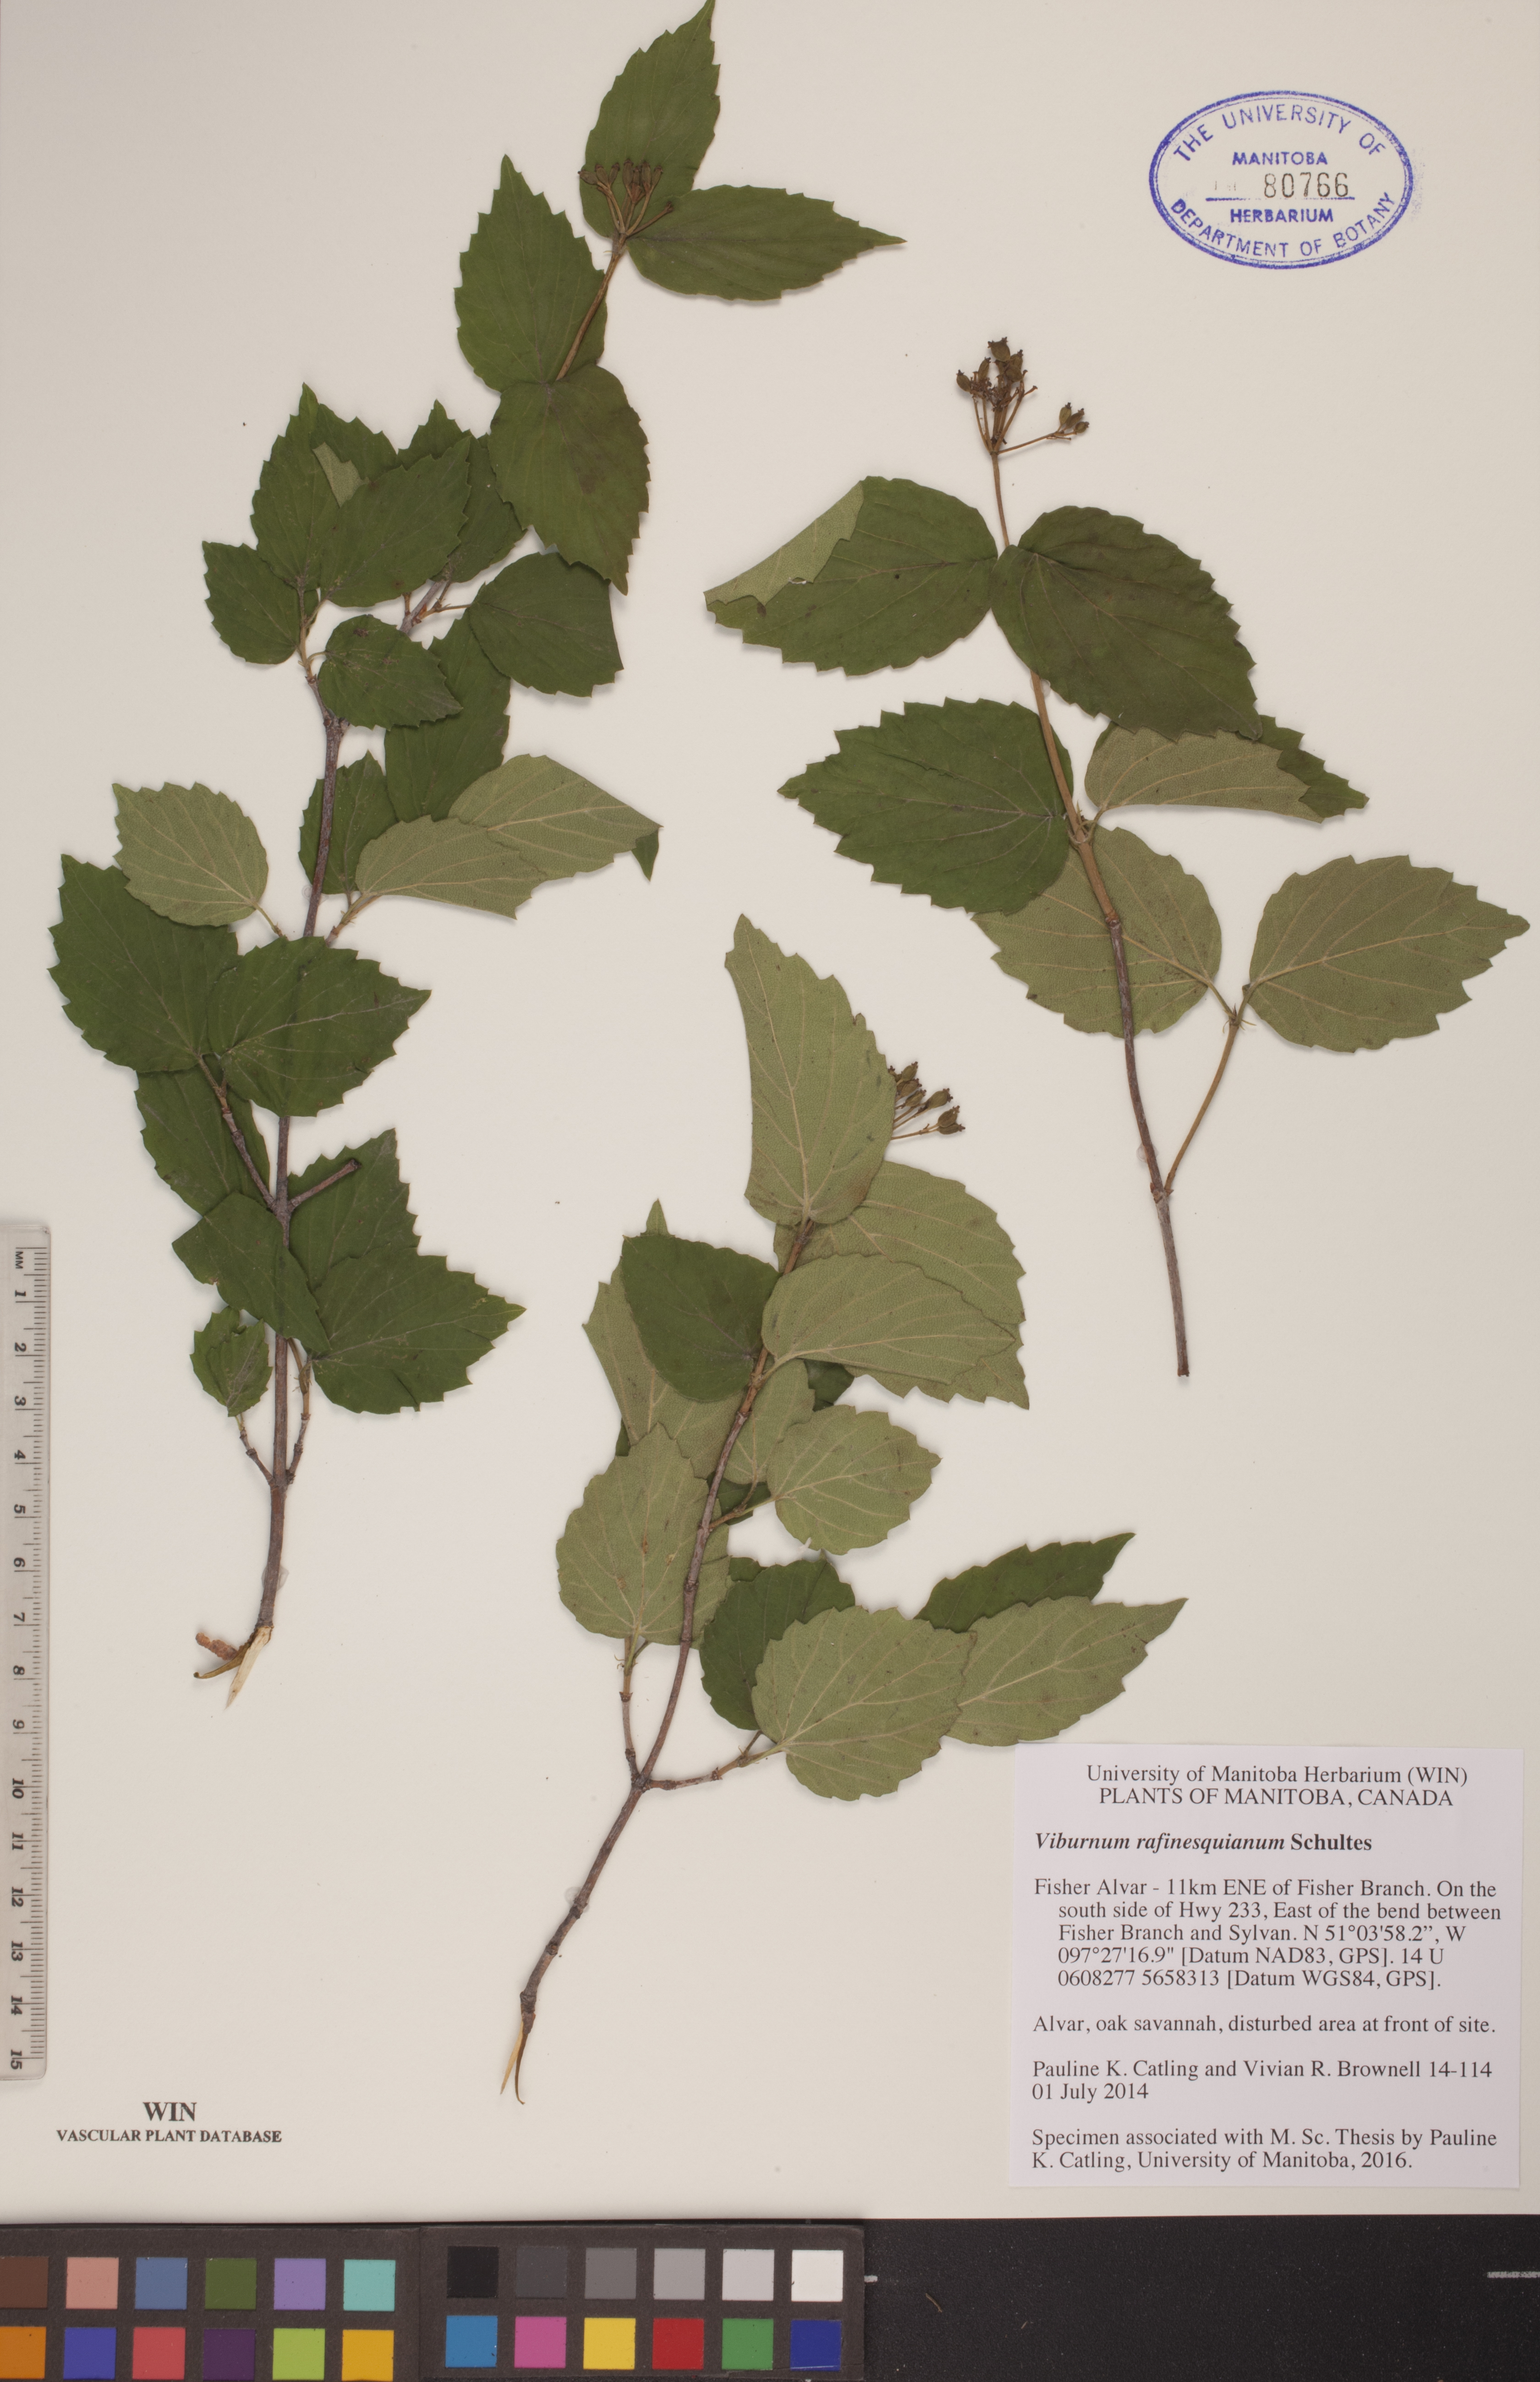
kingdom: Plantae
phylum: Tracheophyta
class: Magnoliopsida
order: Dipsacales
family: Viburnaceae
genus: Viburnum
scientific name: Viburnum rafinesquianum
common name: Downy arrow-wood
